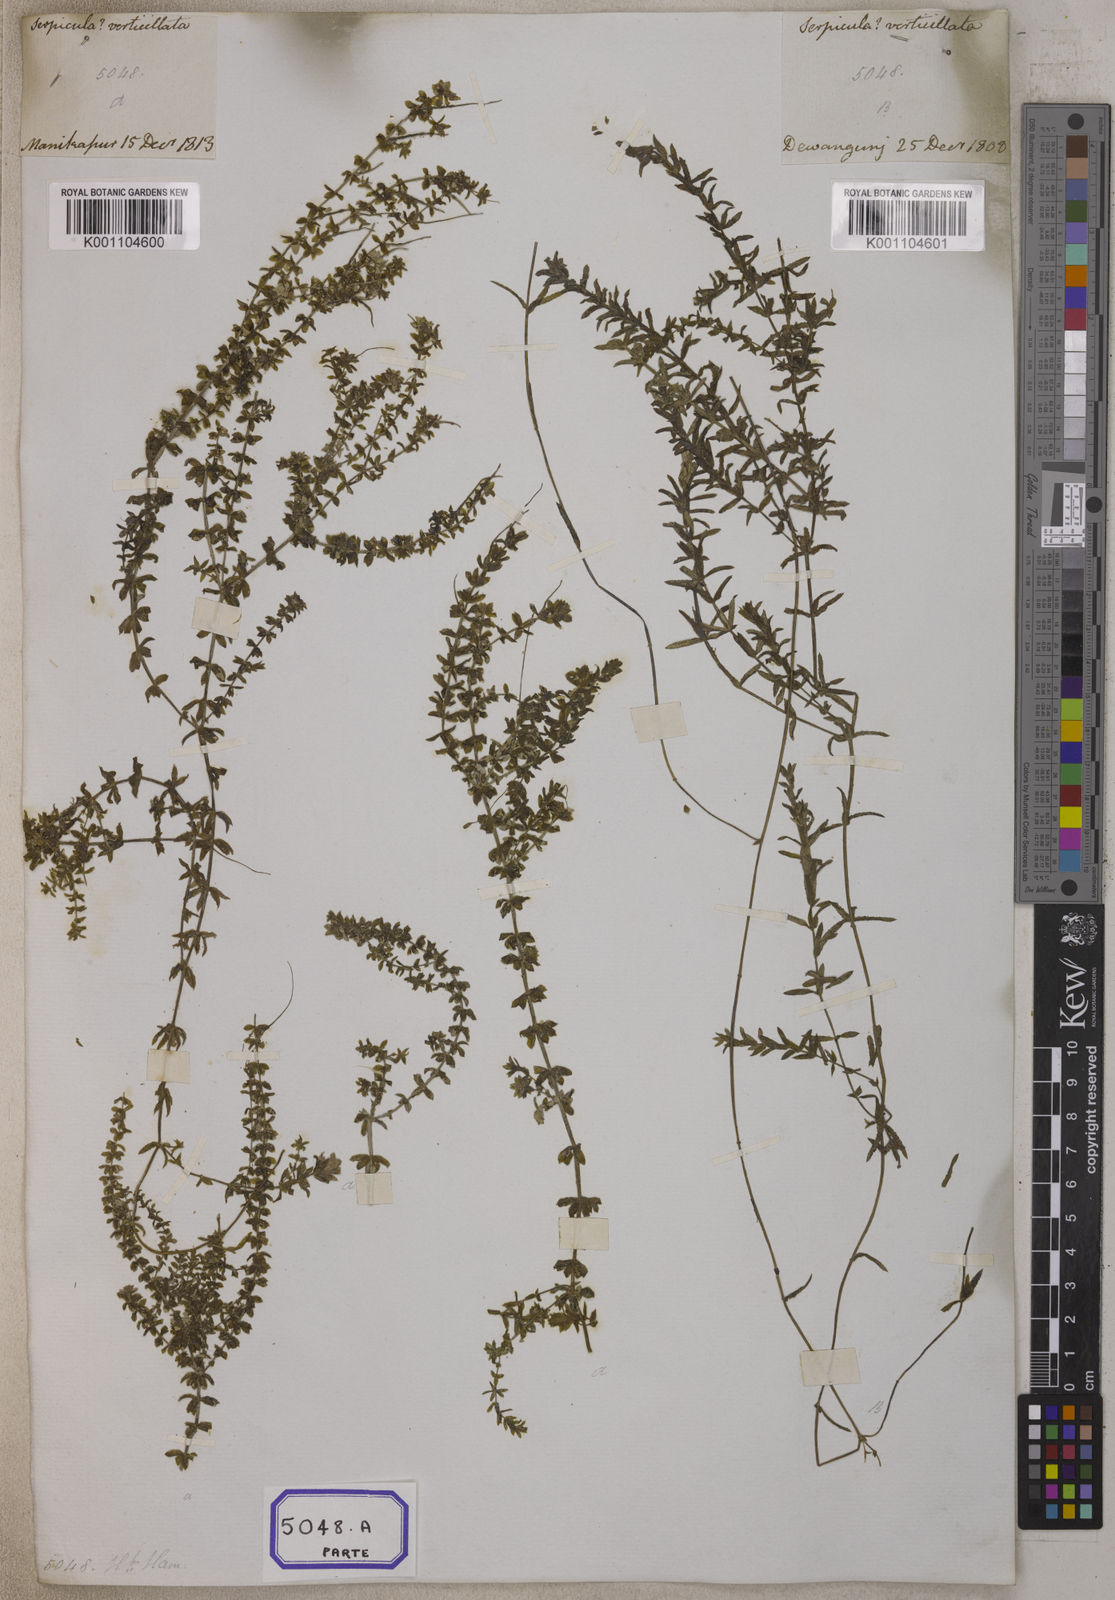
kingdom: Plantae
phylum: Tracheophyta
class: Magnoliopsida
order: Saxifragales
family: Haloragaceae
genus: Serpicula
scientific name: Serpicula
